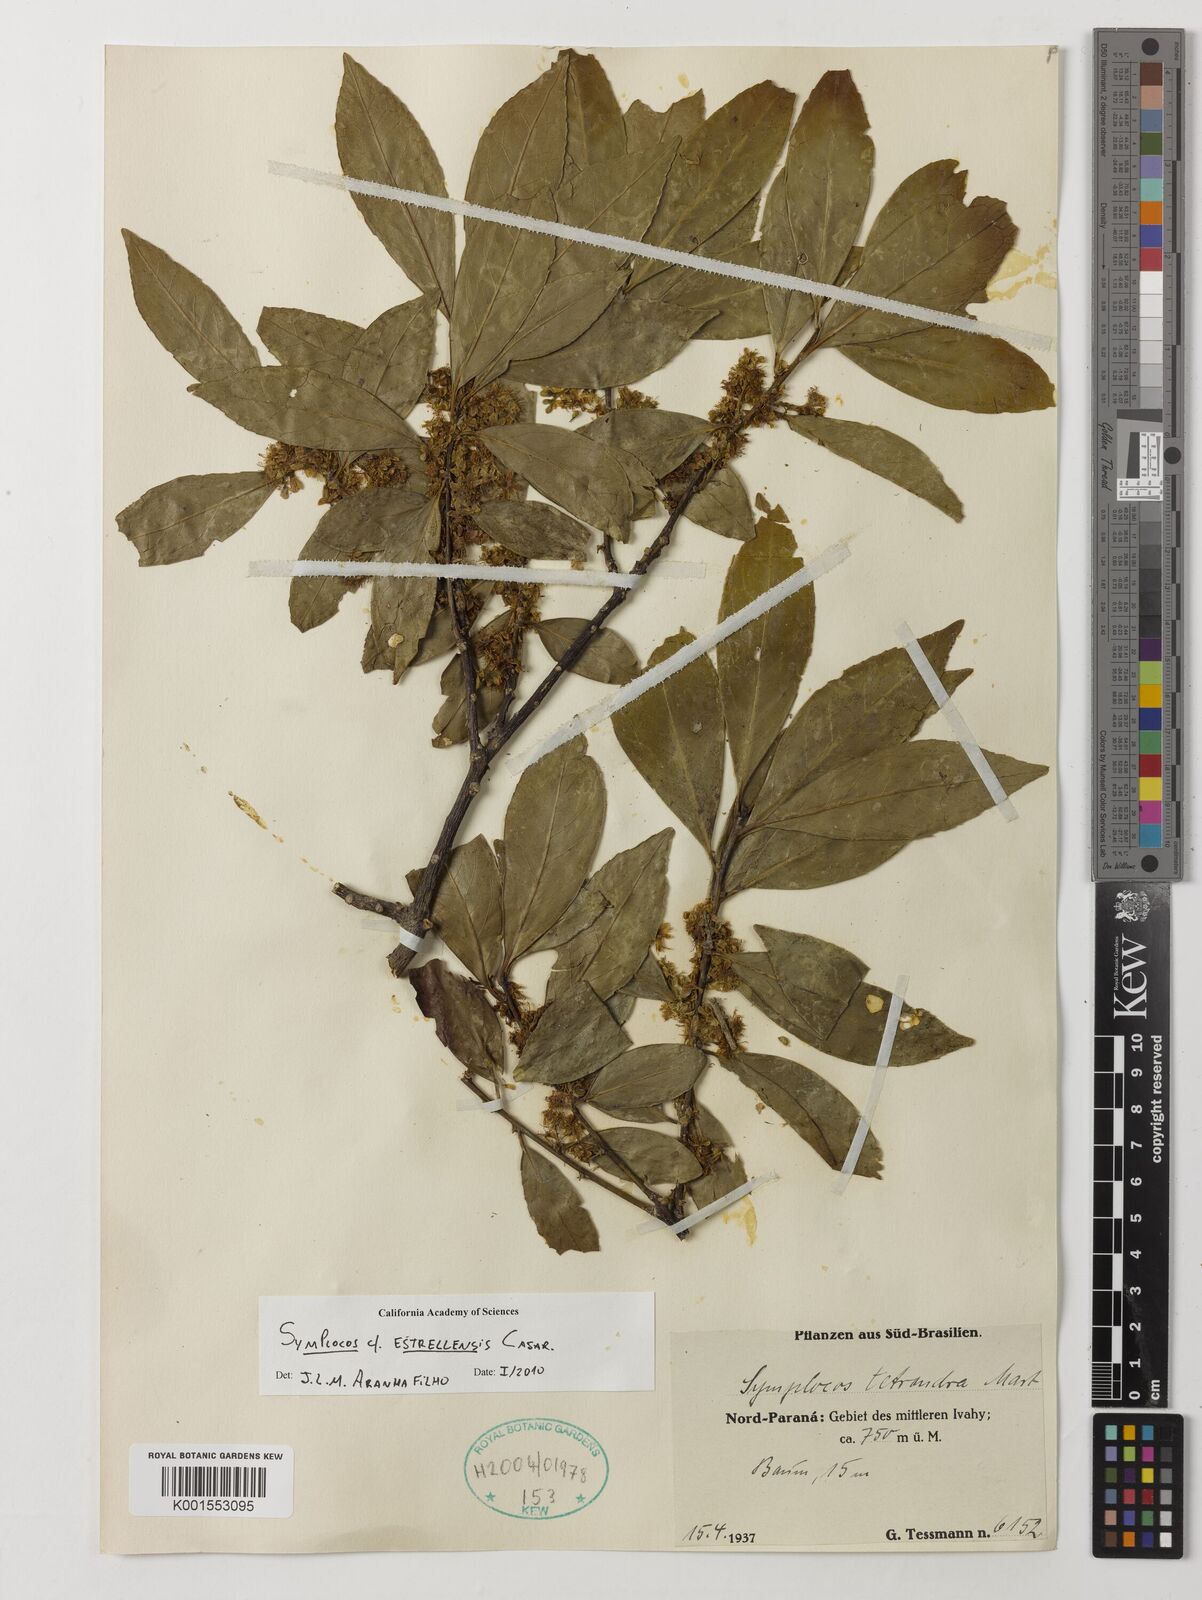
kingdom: Plantae
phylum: Tracheophyta
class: Magnoliopsida
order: Ericales
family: Symplocaceae
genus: Symplocos
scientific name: Symplocos estrellensis
